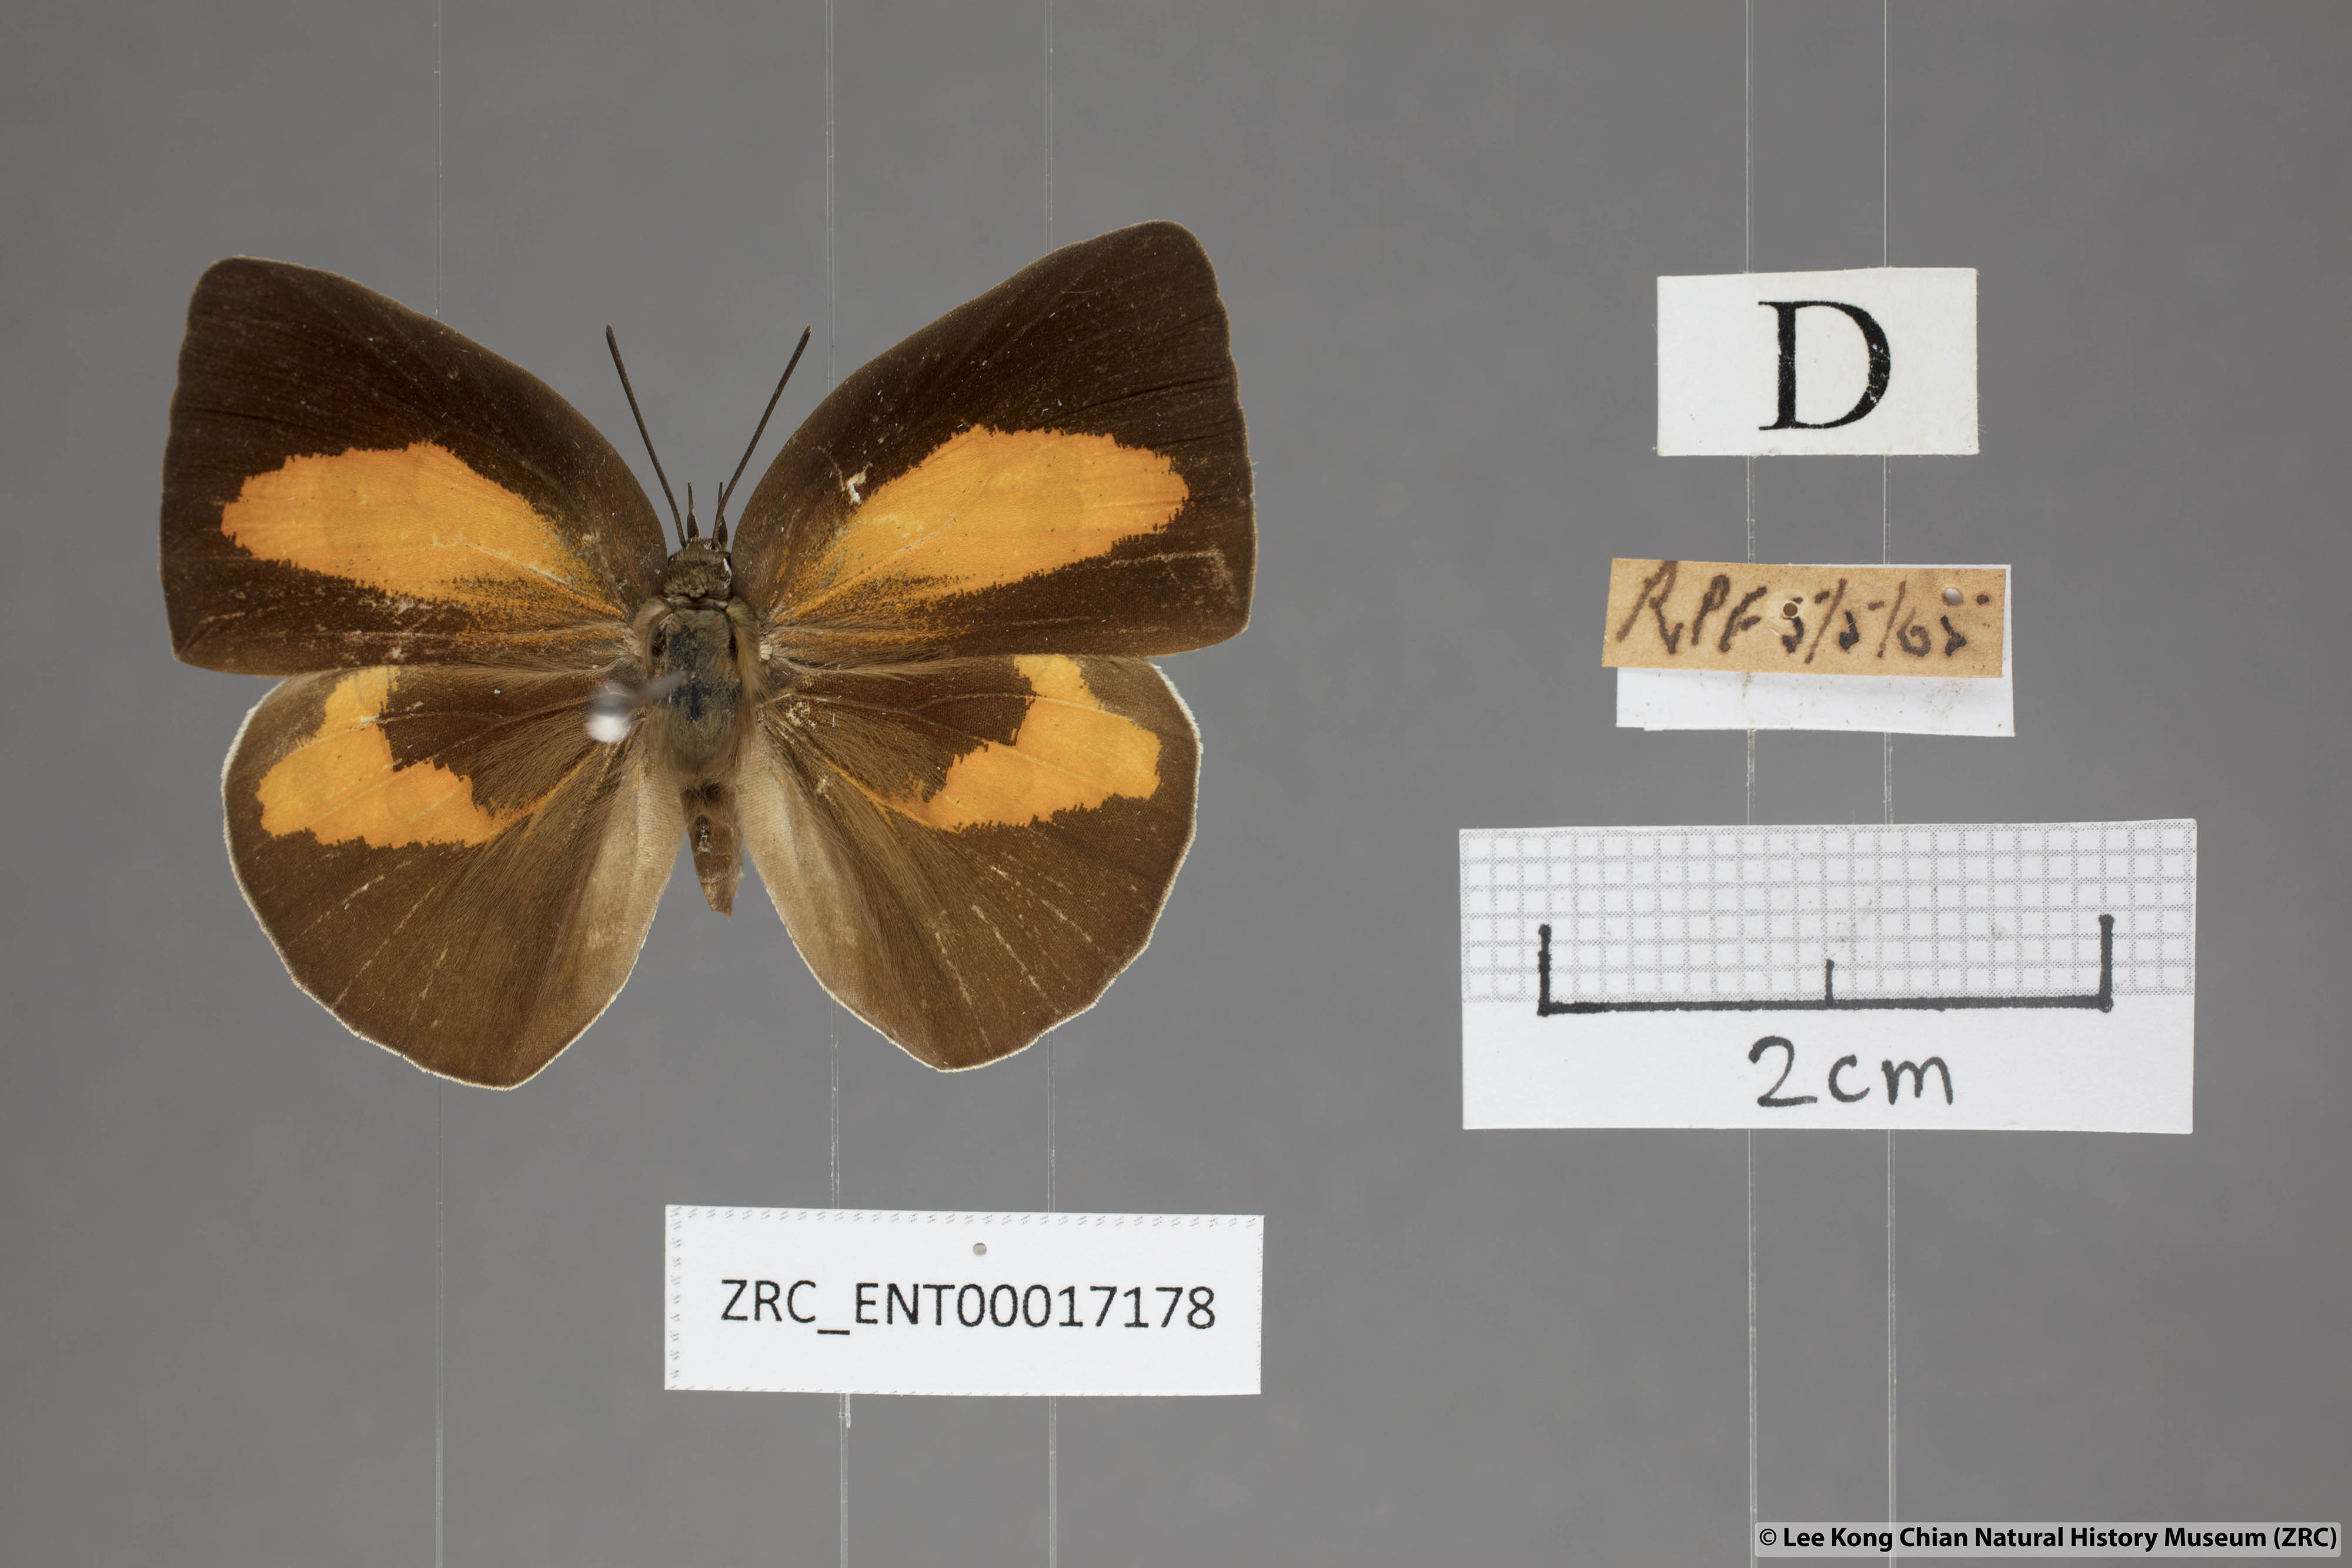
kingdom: Animalia
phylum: Arthropoda
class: Insecta
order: Lepidoptera
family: Lycaenidae
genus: Curetis
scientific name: Curetis tagalica
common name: Southern sunbeam
